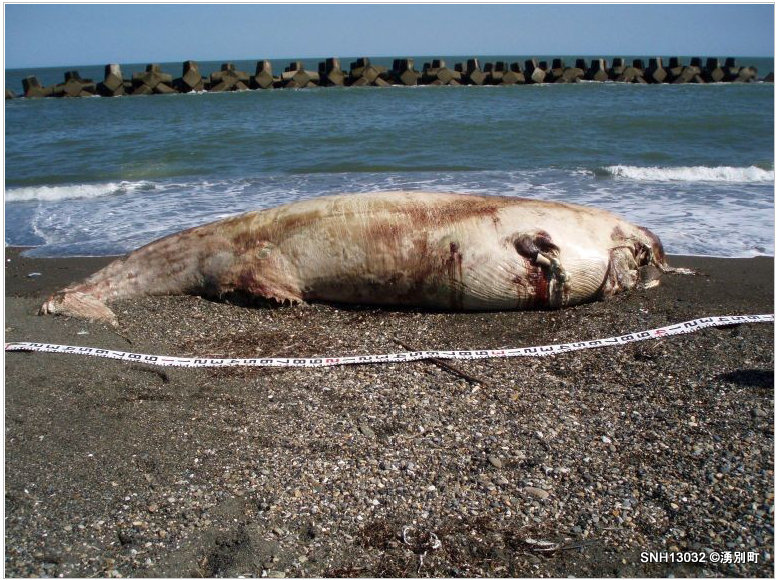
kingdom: Animalia
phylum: Chordata
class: Mammalia
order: Cetacea
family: Balaenopteridae
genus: Balaenoptera
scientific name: Balaenoptera
